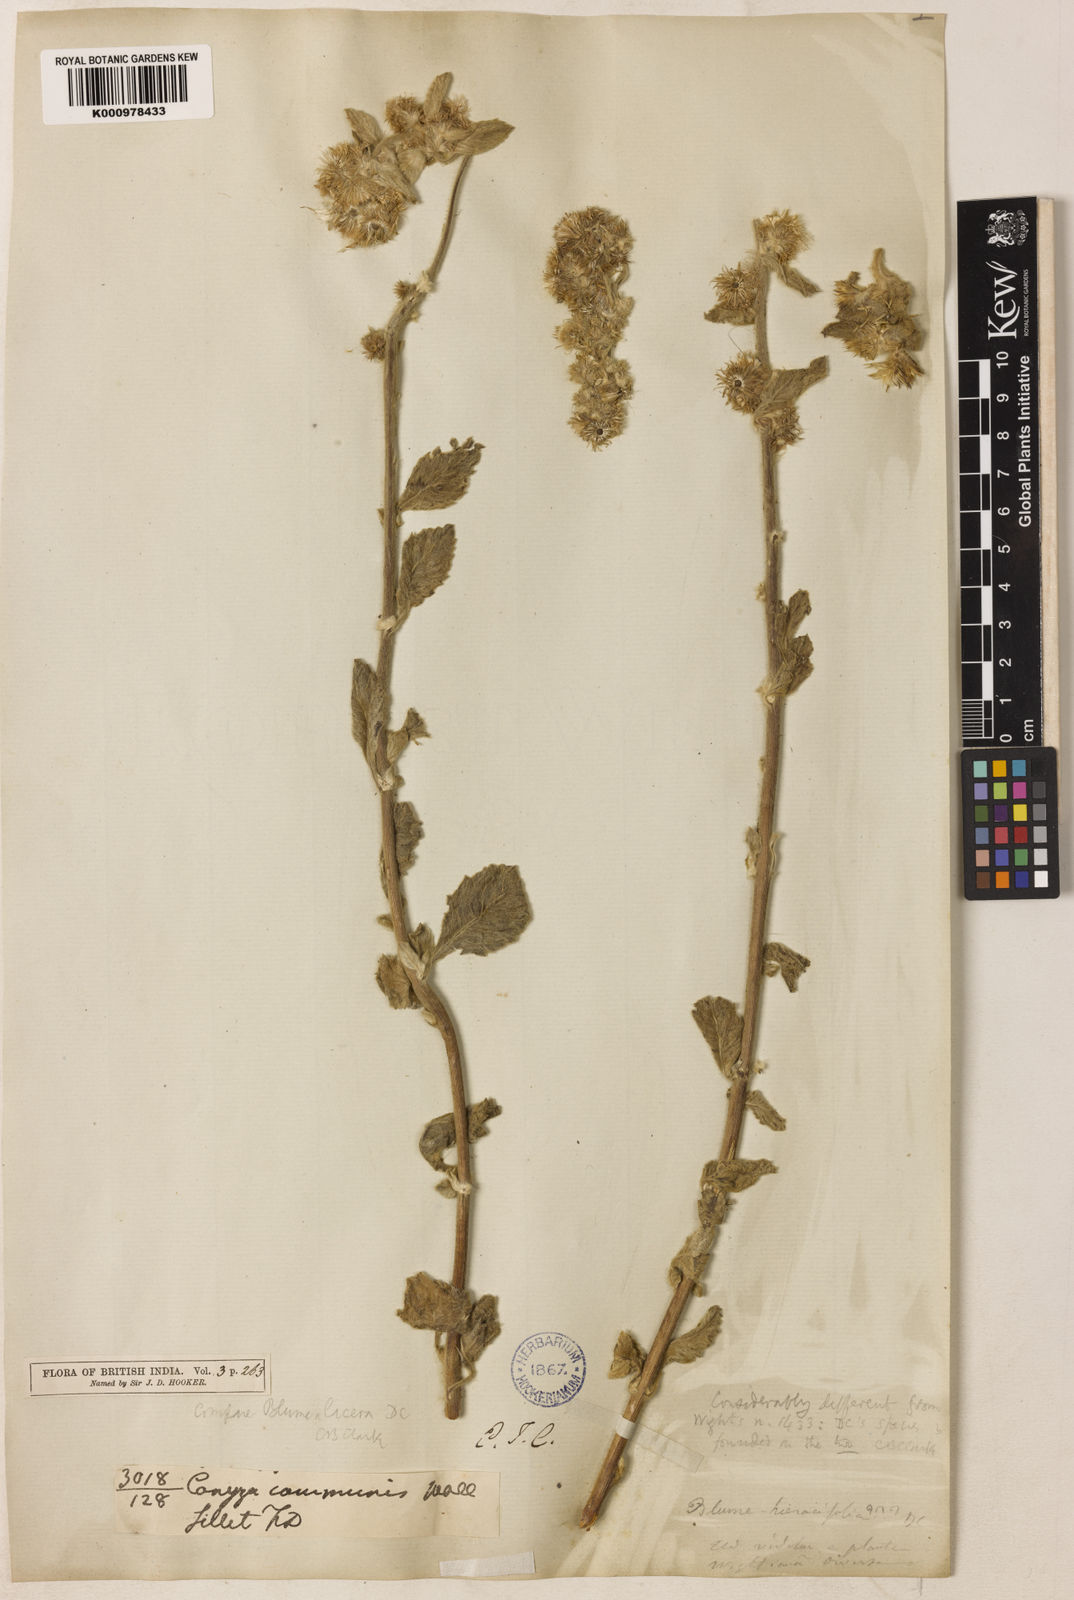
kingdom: Plantae
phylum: Tracheophyta
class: Magnoliopsida
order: Asterales
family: Asteraceae
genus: Blumea
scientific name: Blumea hieraciifolia
